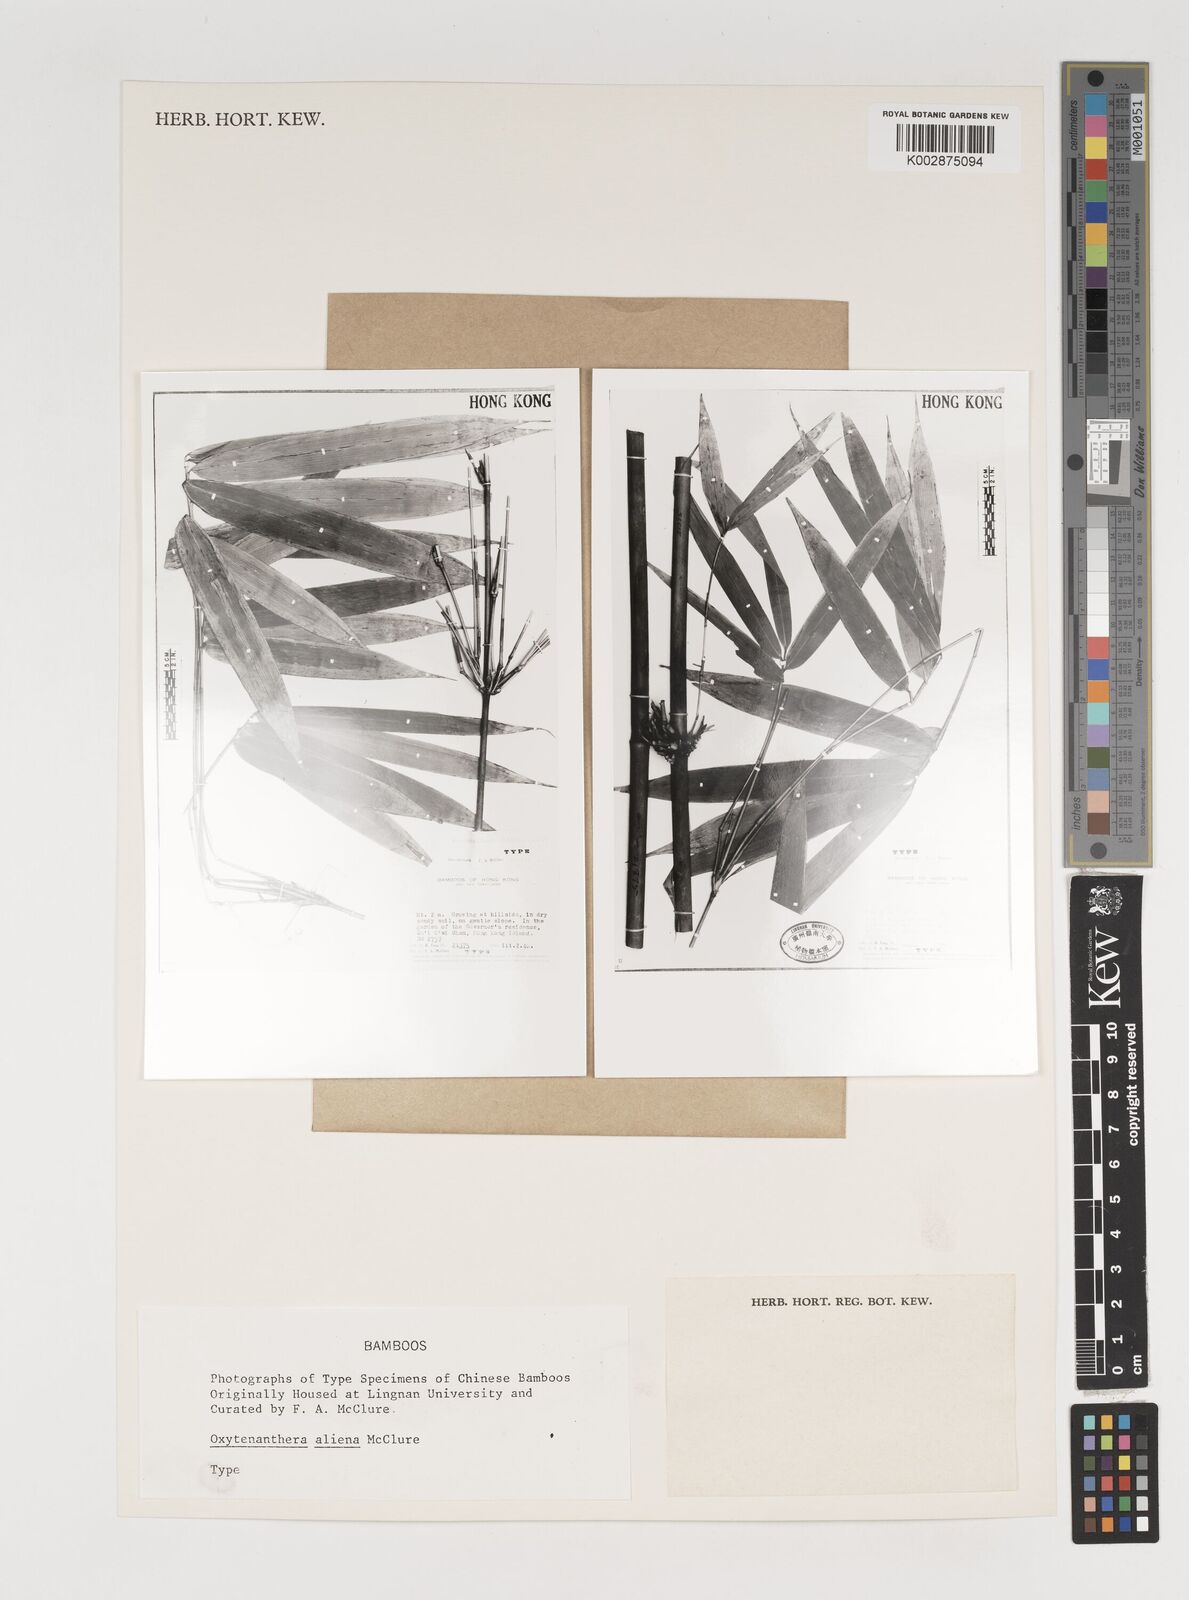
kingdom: Plantae
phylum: Tracheophyta
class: Liliopsida
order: Poales
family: Poaceae
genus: Schizostachyum
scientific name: Schizostachyum pergracile
